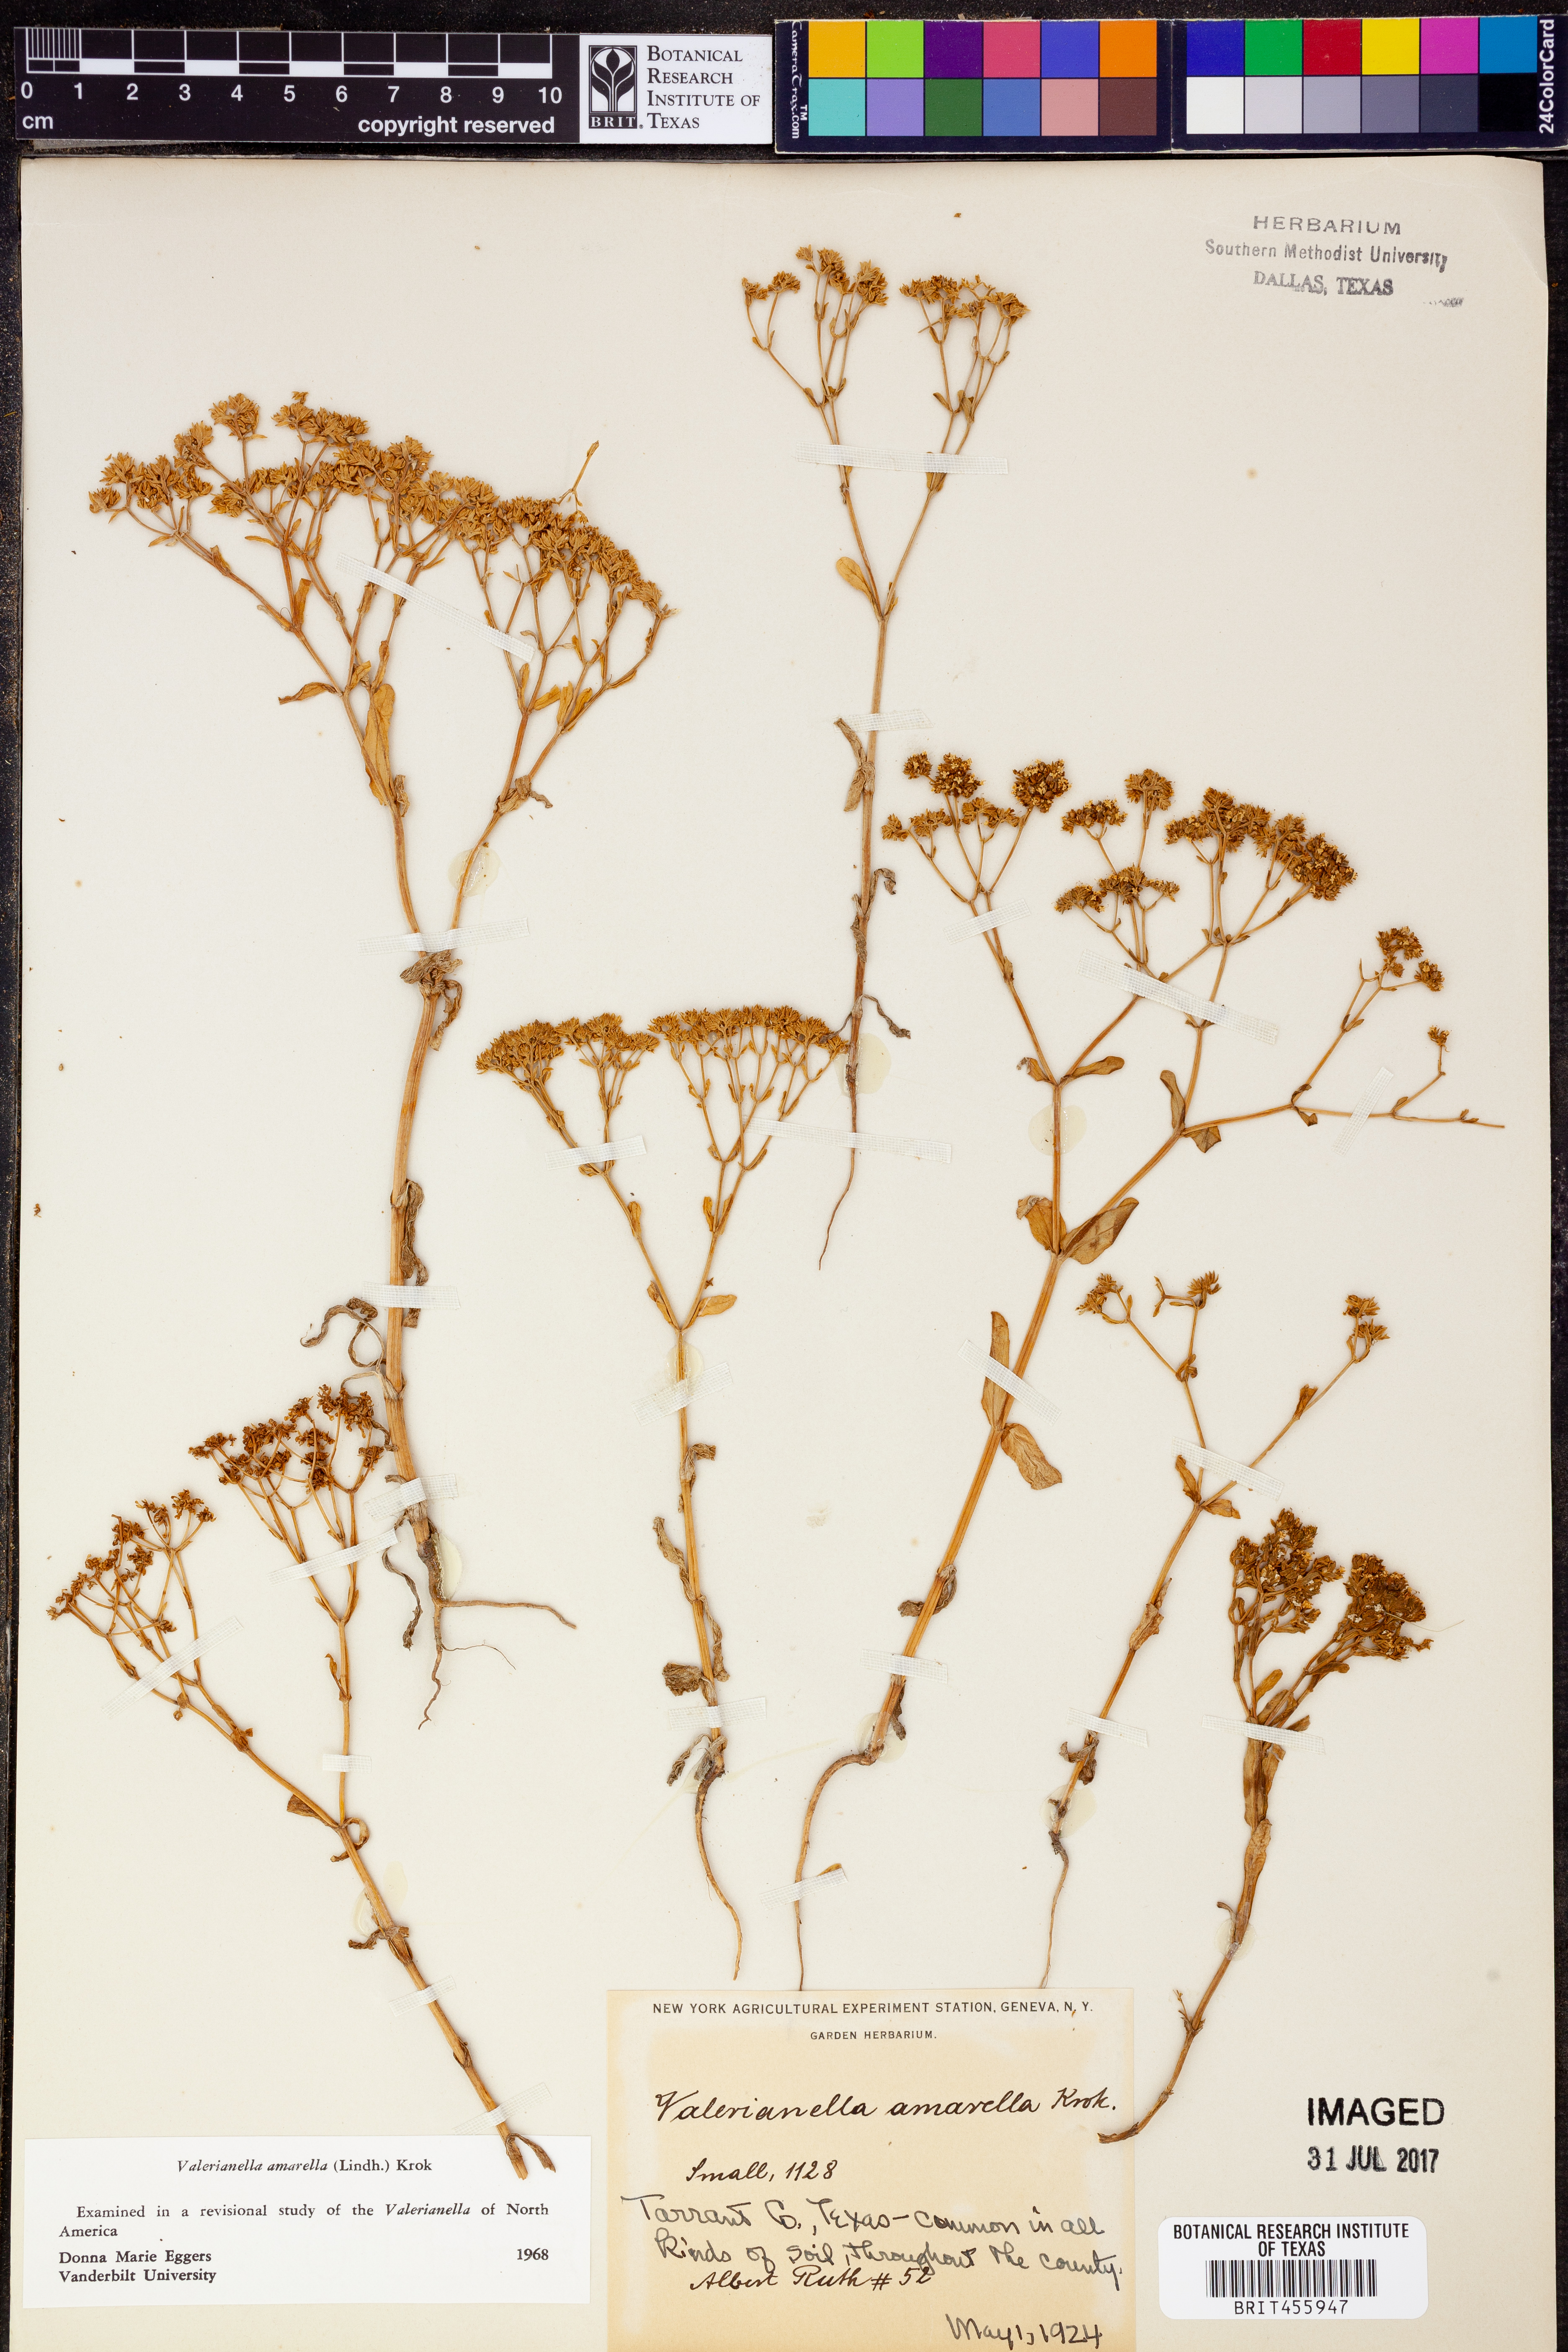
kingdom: Plantae
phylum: Tracheophyta
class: Magnoliopsida
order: Dipsacales
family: Caprifoliaceae
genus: Valerianella
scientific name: Valerianella amarella
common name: Hariy cornsalad
